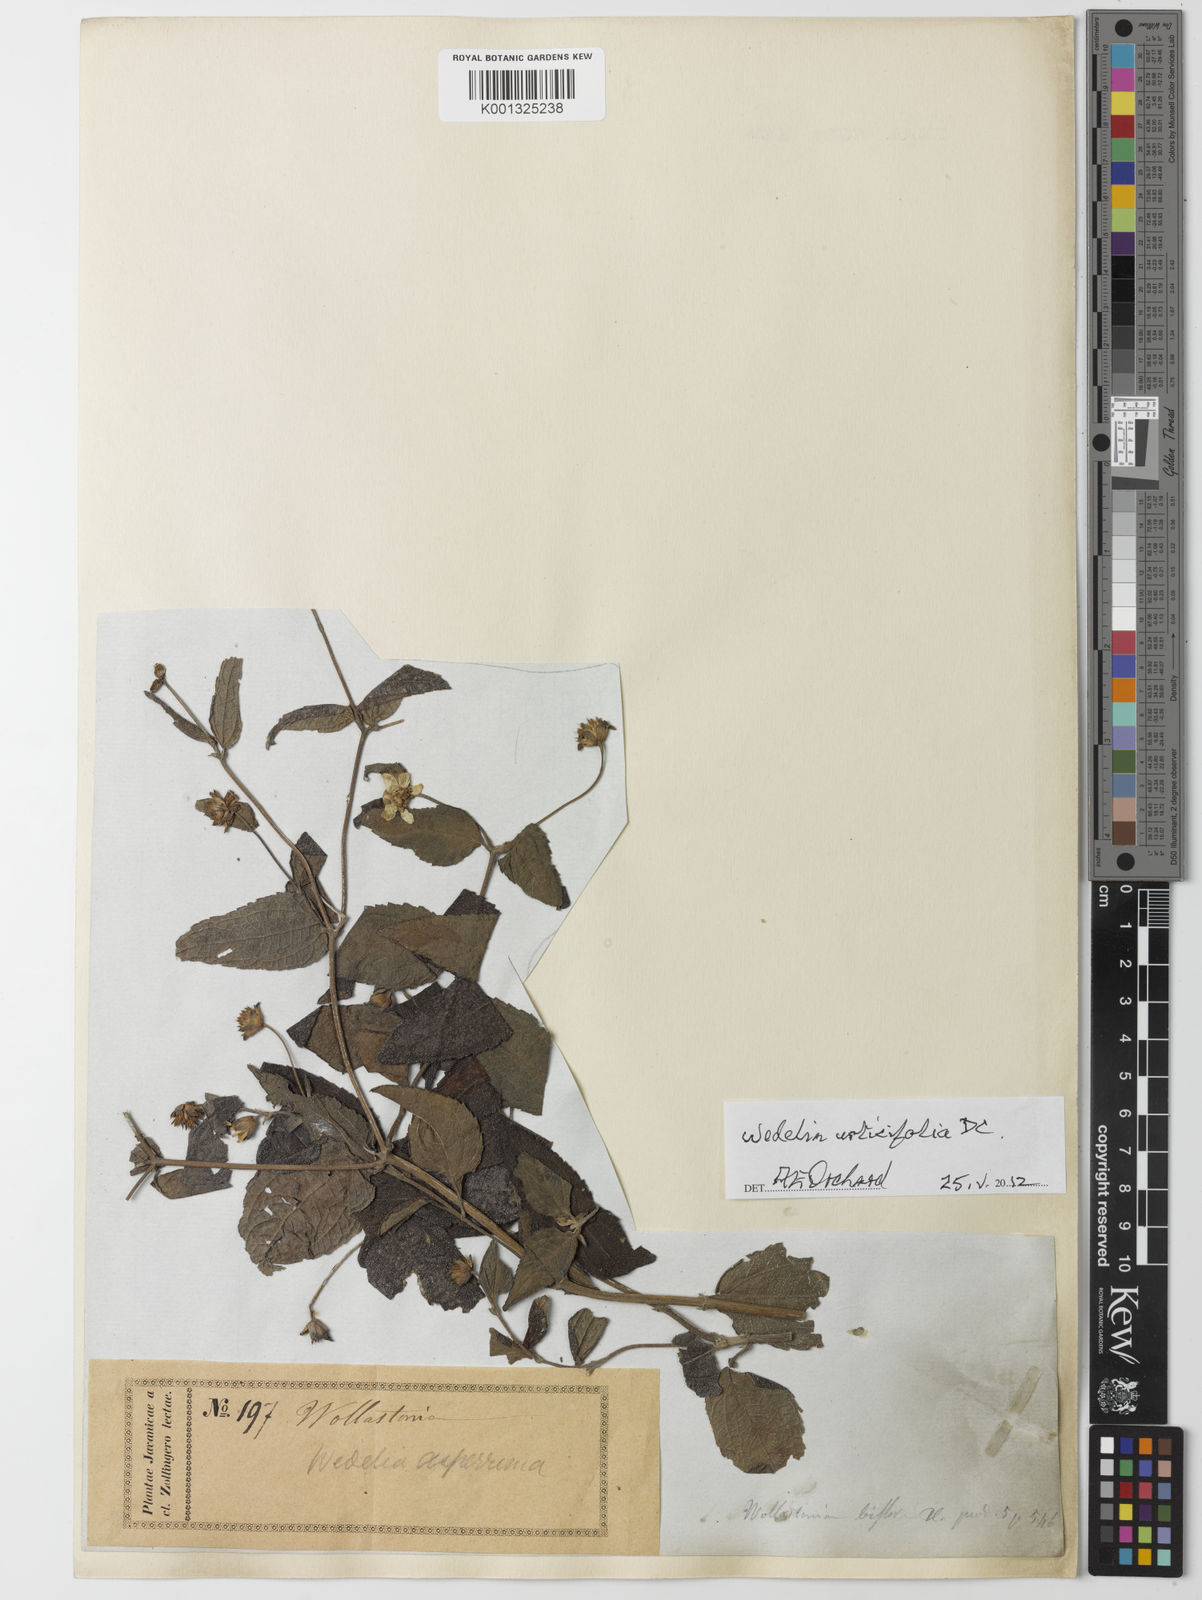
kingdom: Plantae
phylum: Tracheophyta
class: Magnoliopsida
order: Asterales
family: Asteraceae
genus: Lipoblepharis
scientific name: Lipoblepharis urticifolia
